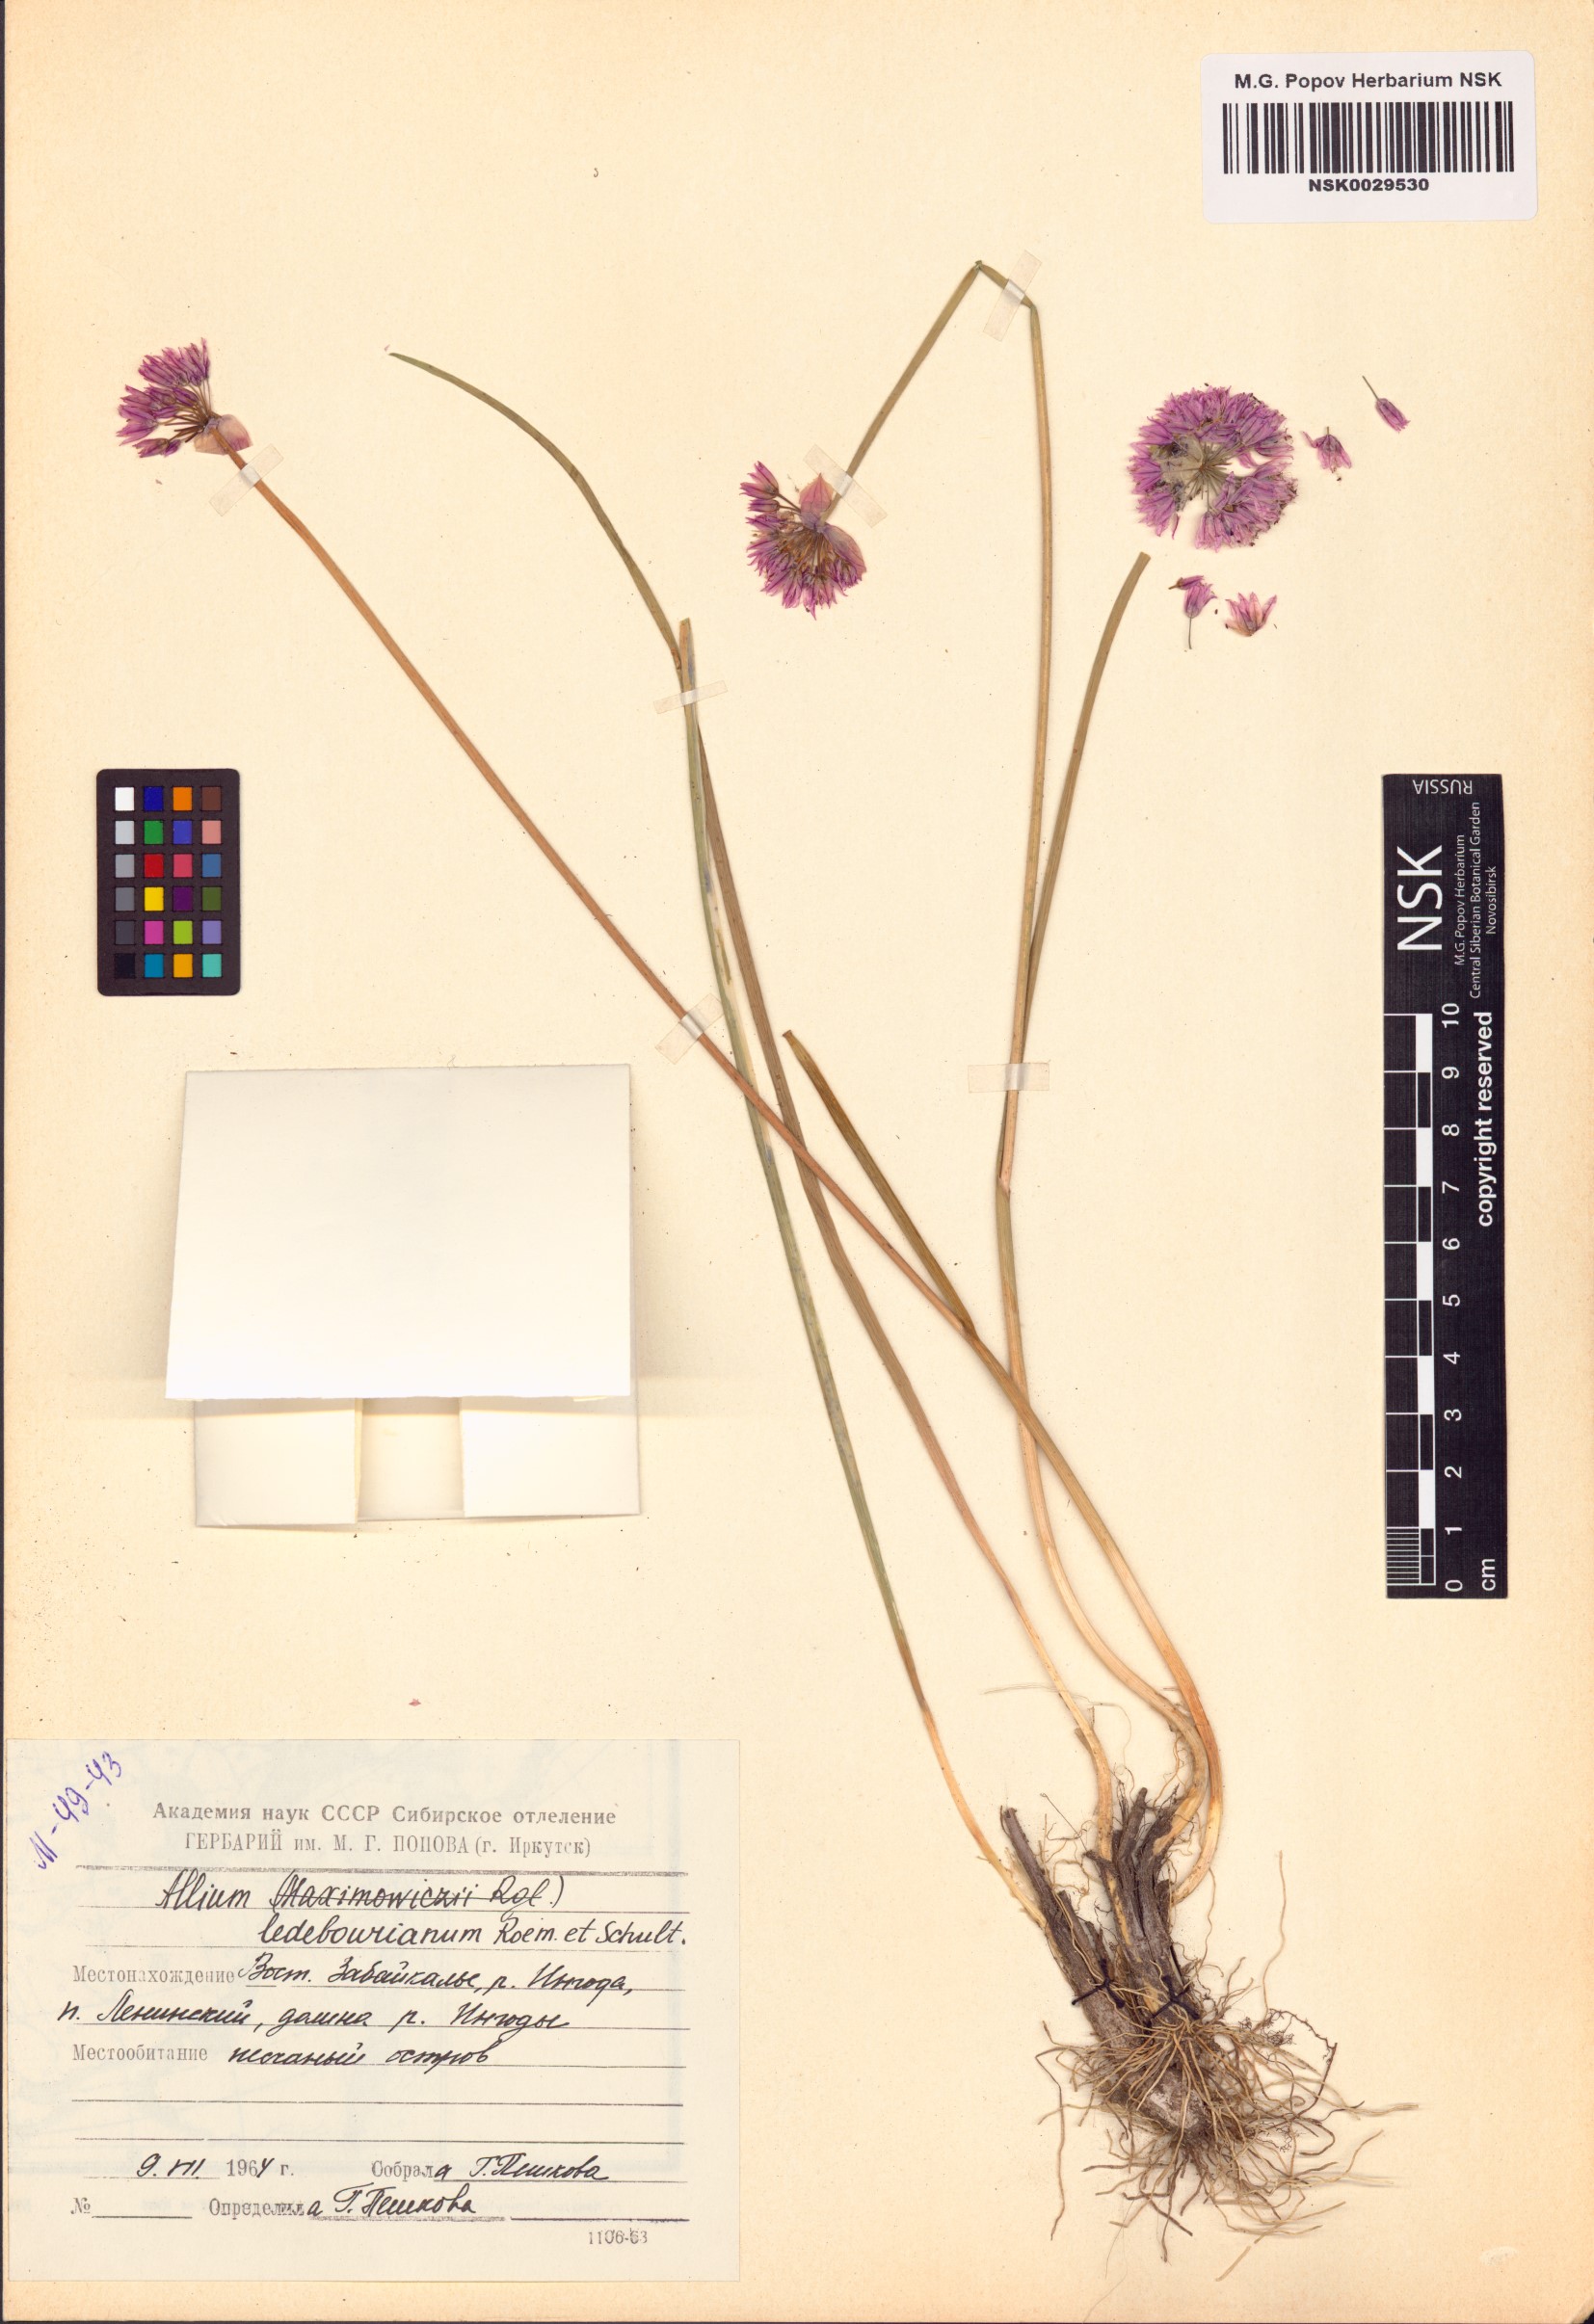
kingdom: Plantae
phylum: Tracheophyta
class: Liliopsida
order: Asparagales
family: Amaryllidaceae
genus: Allium
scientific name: Allium ledebourianum
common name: Ledebour chive
